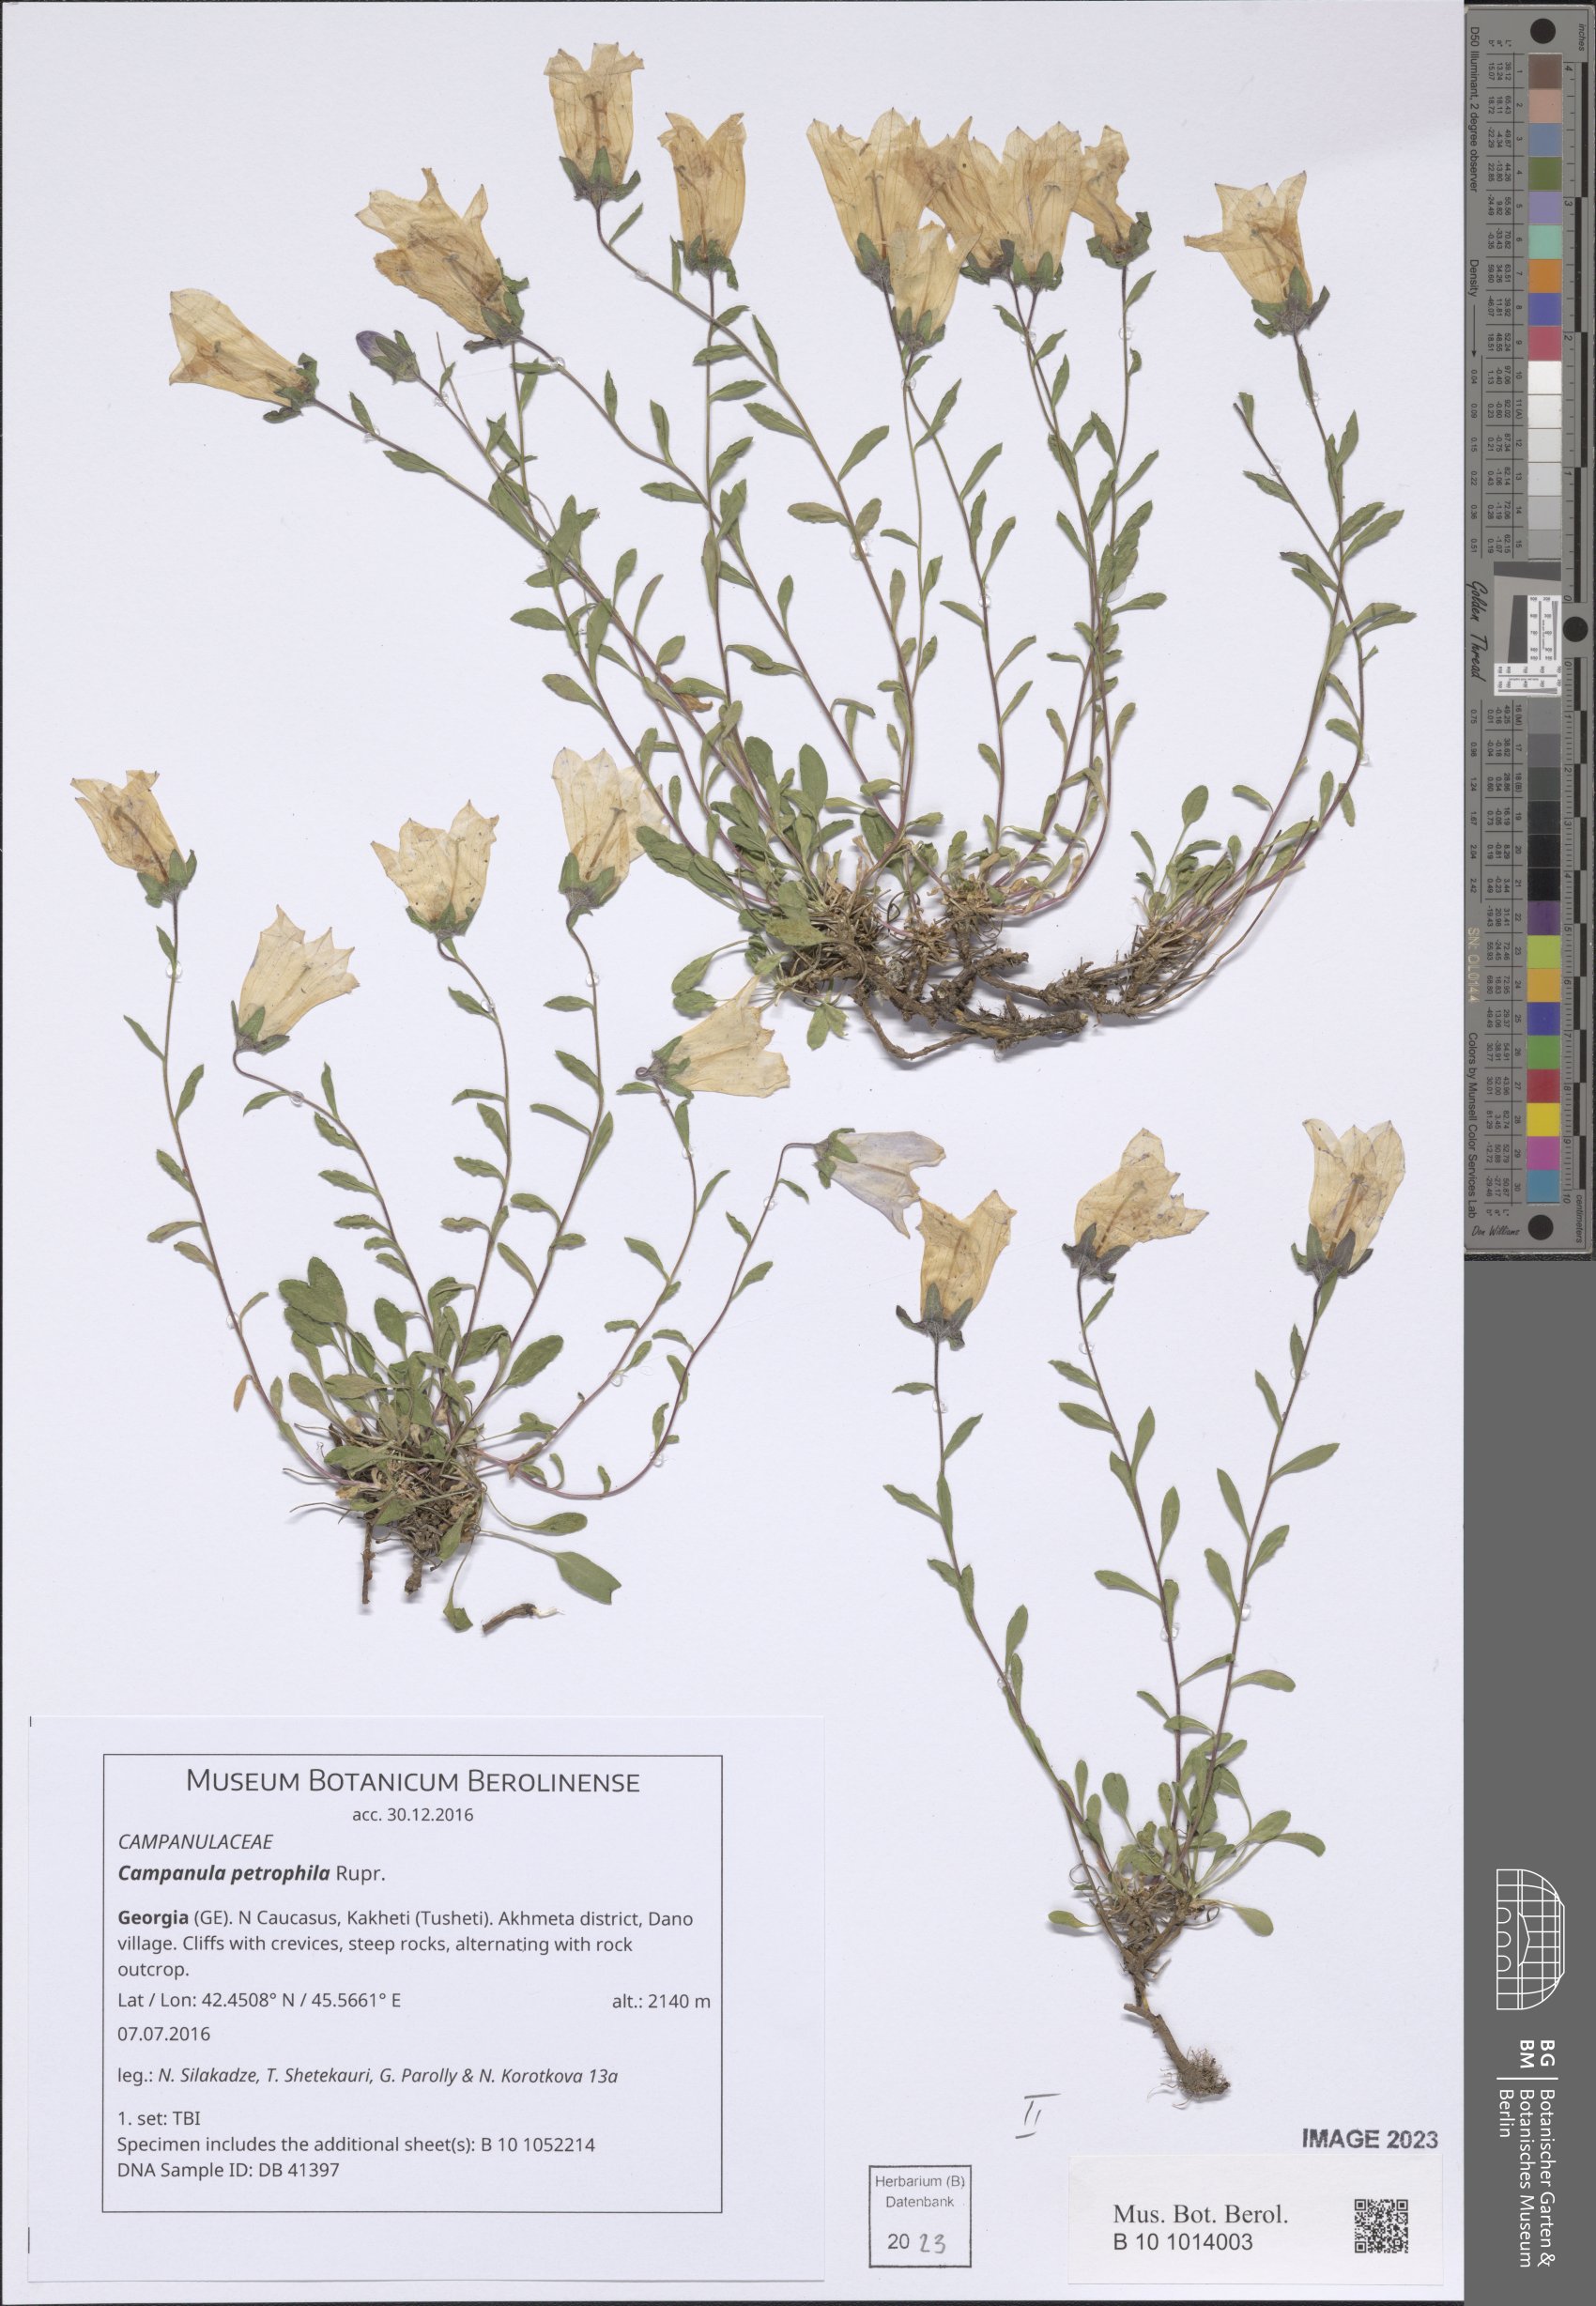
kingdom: Plantae
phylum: Tracheophyta
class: Magnoliopsida
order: Asterales
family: Campanulaceae
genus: Campanula
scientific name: Campanula petrophila
